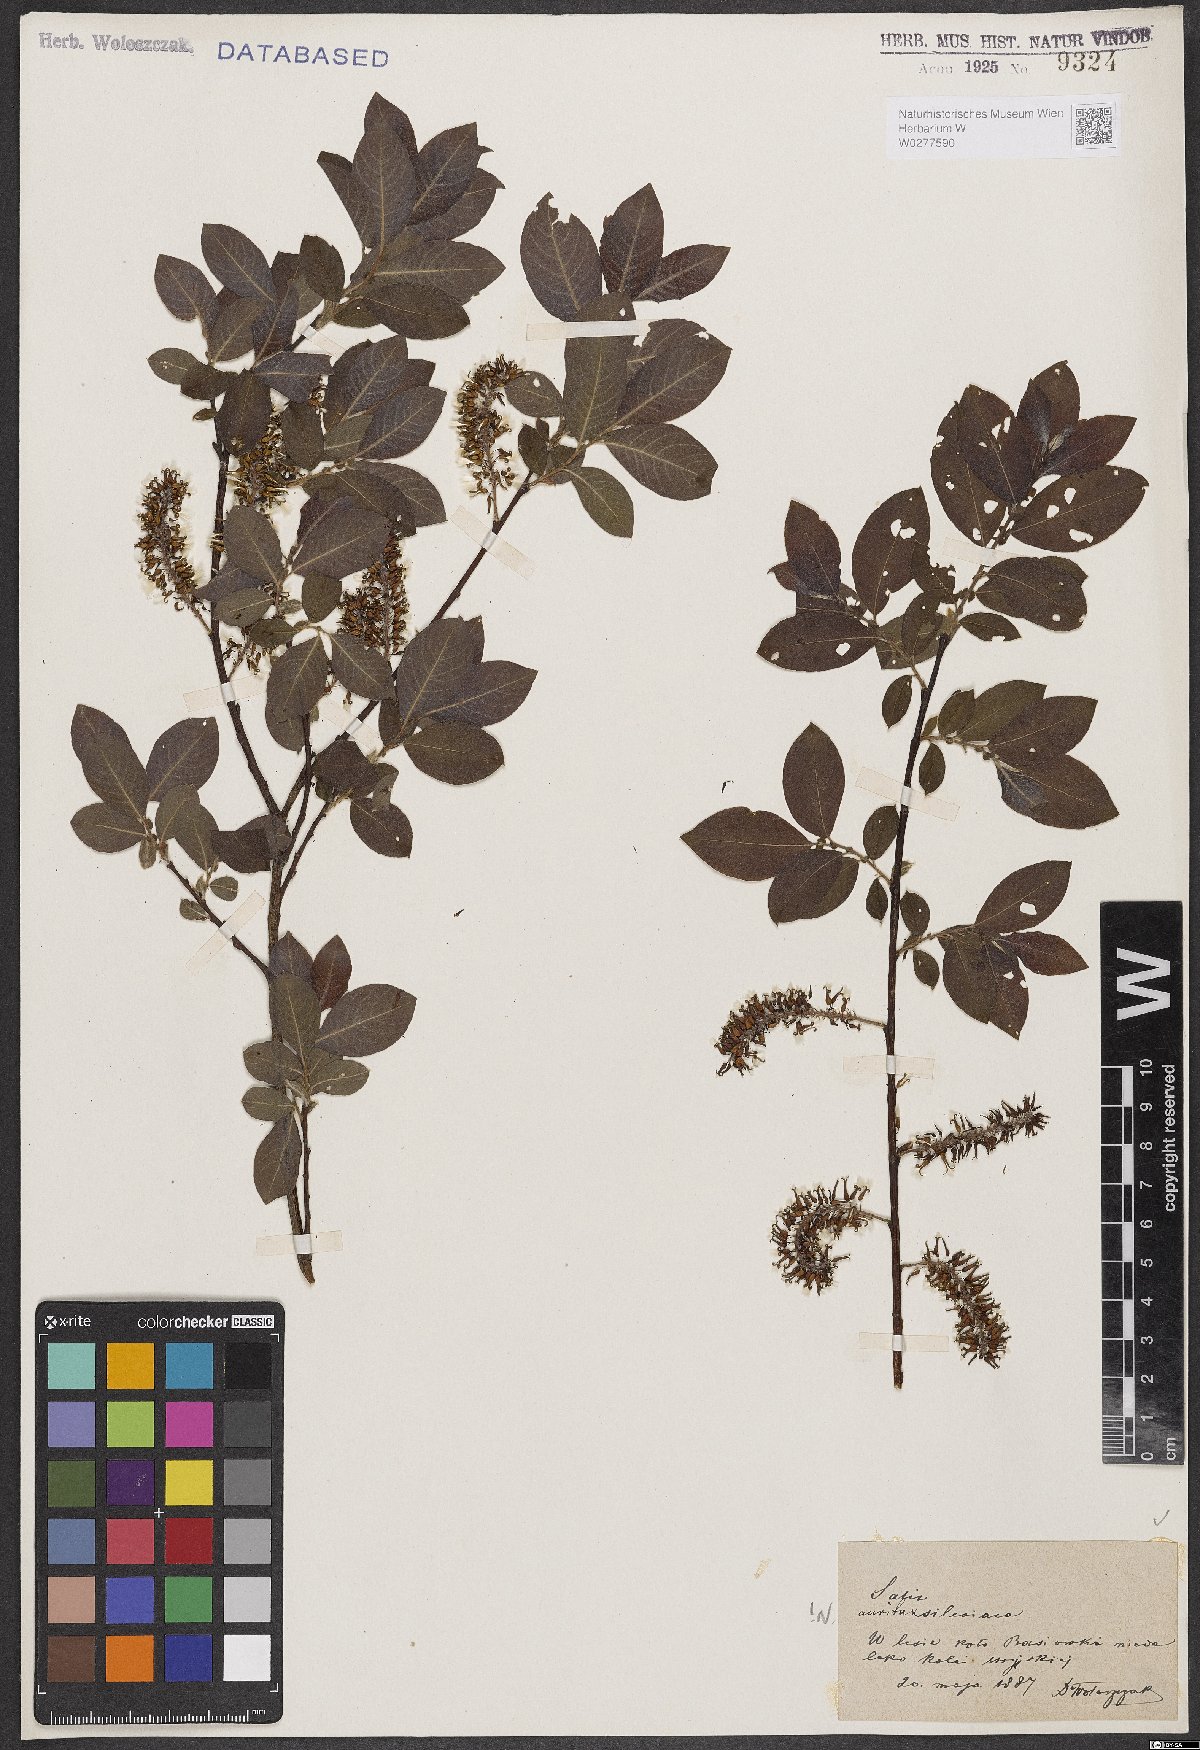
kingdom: Plantae
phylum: Tracheophyta
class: Magnoliopsida
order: Malpighiales
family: Salicaceae
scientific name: Salicaceae
